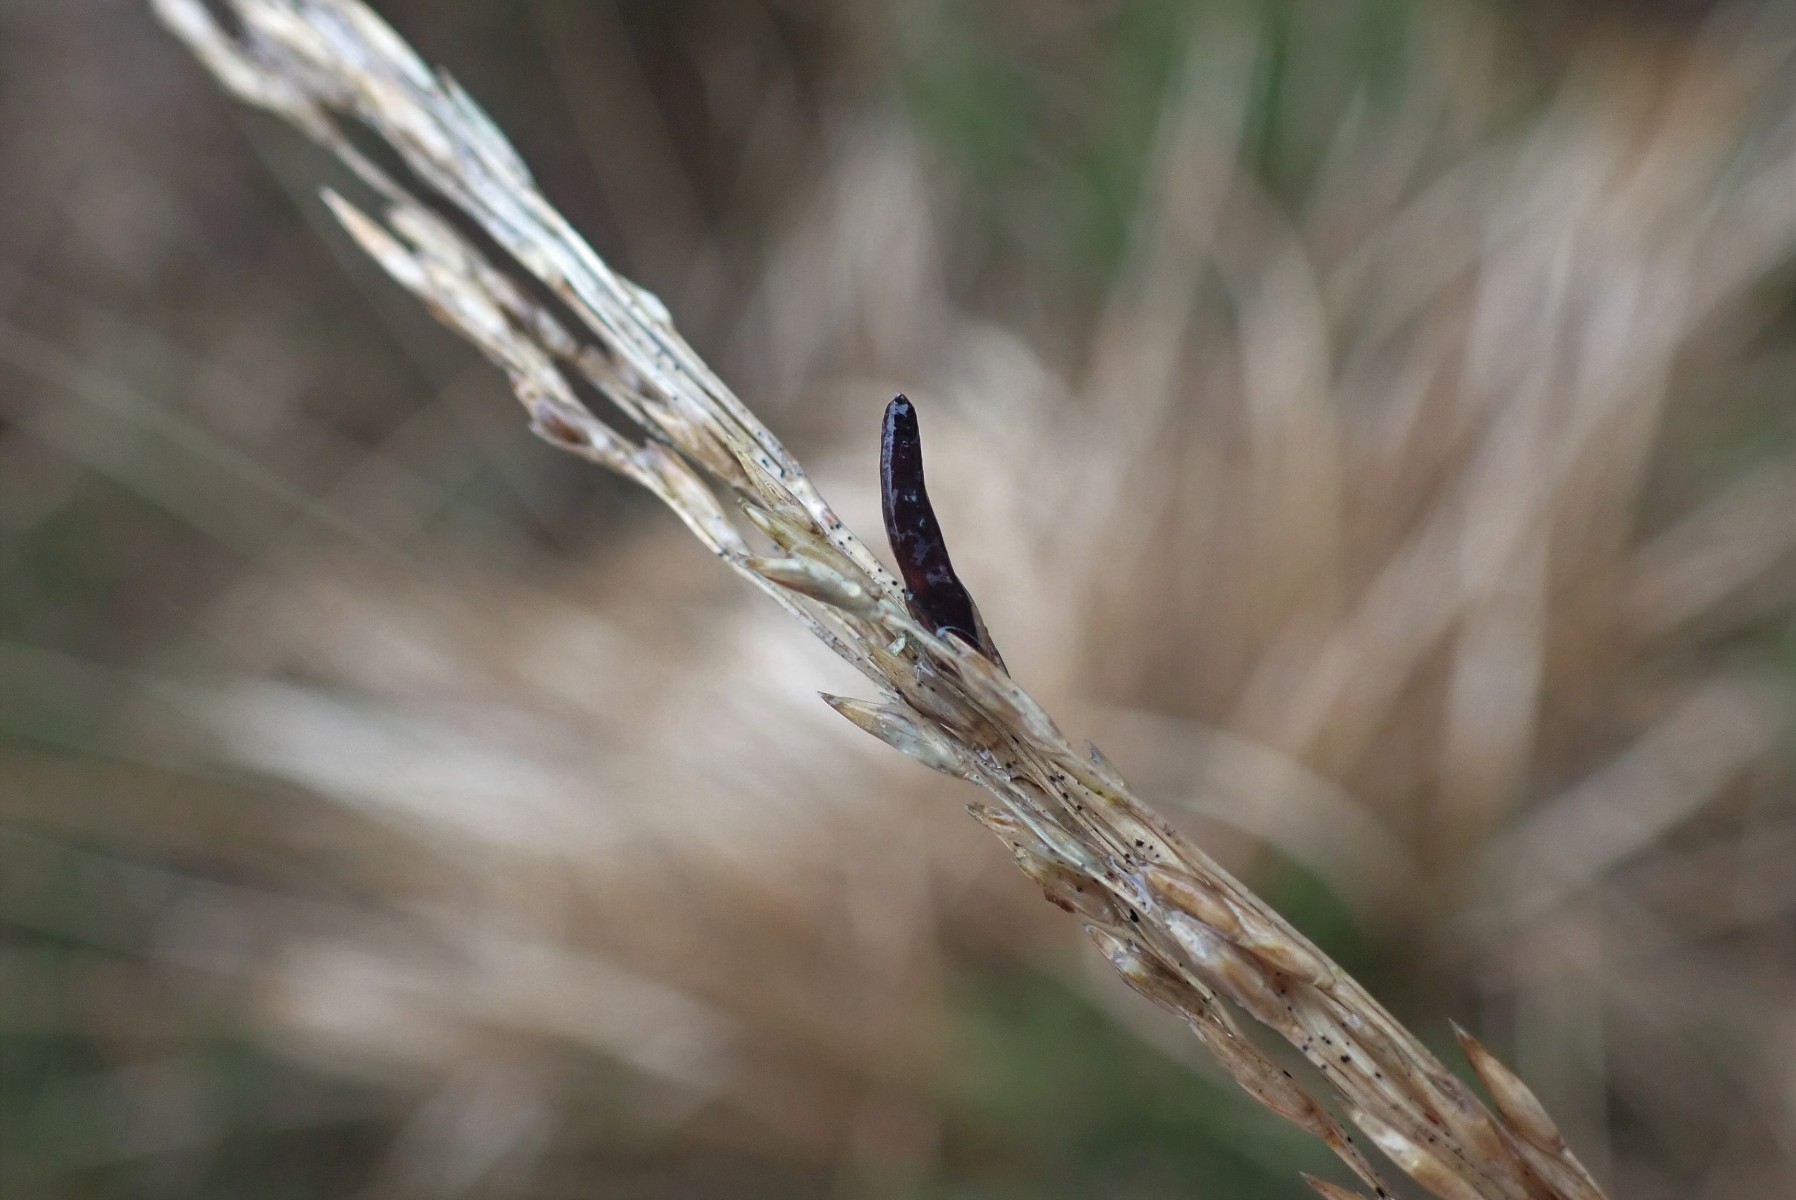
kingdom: Fungi
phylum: Ascomycota
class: Sordariomycetes
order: Hypocreales
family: Clavicipitaceae
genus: Claviceps
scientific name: Claviceps purpurea
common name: almindelig meldrøjer
